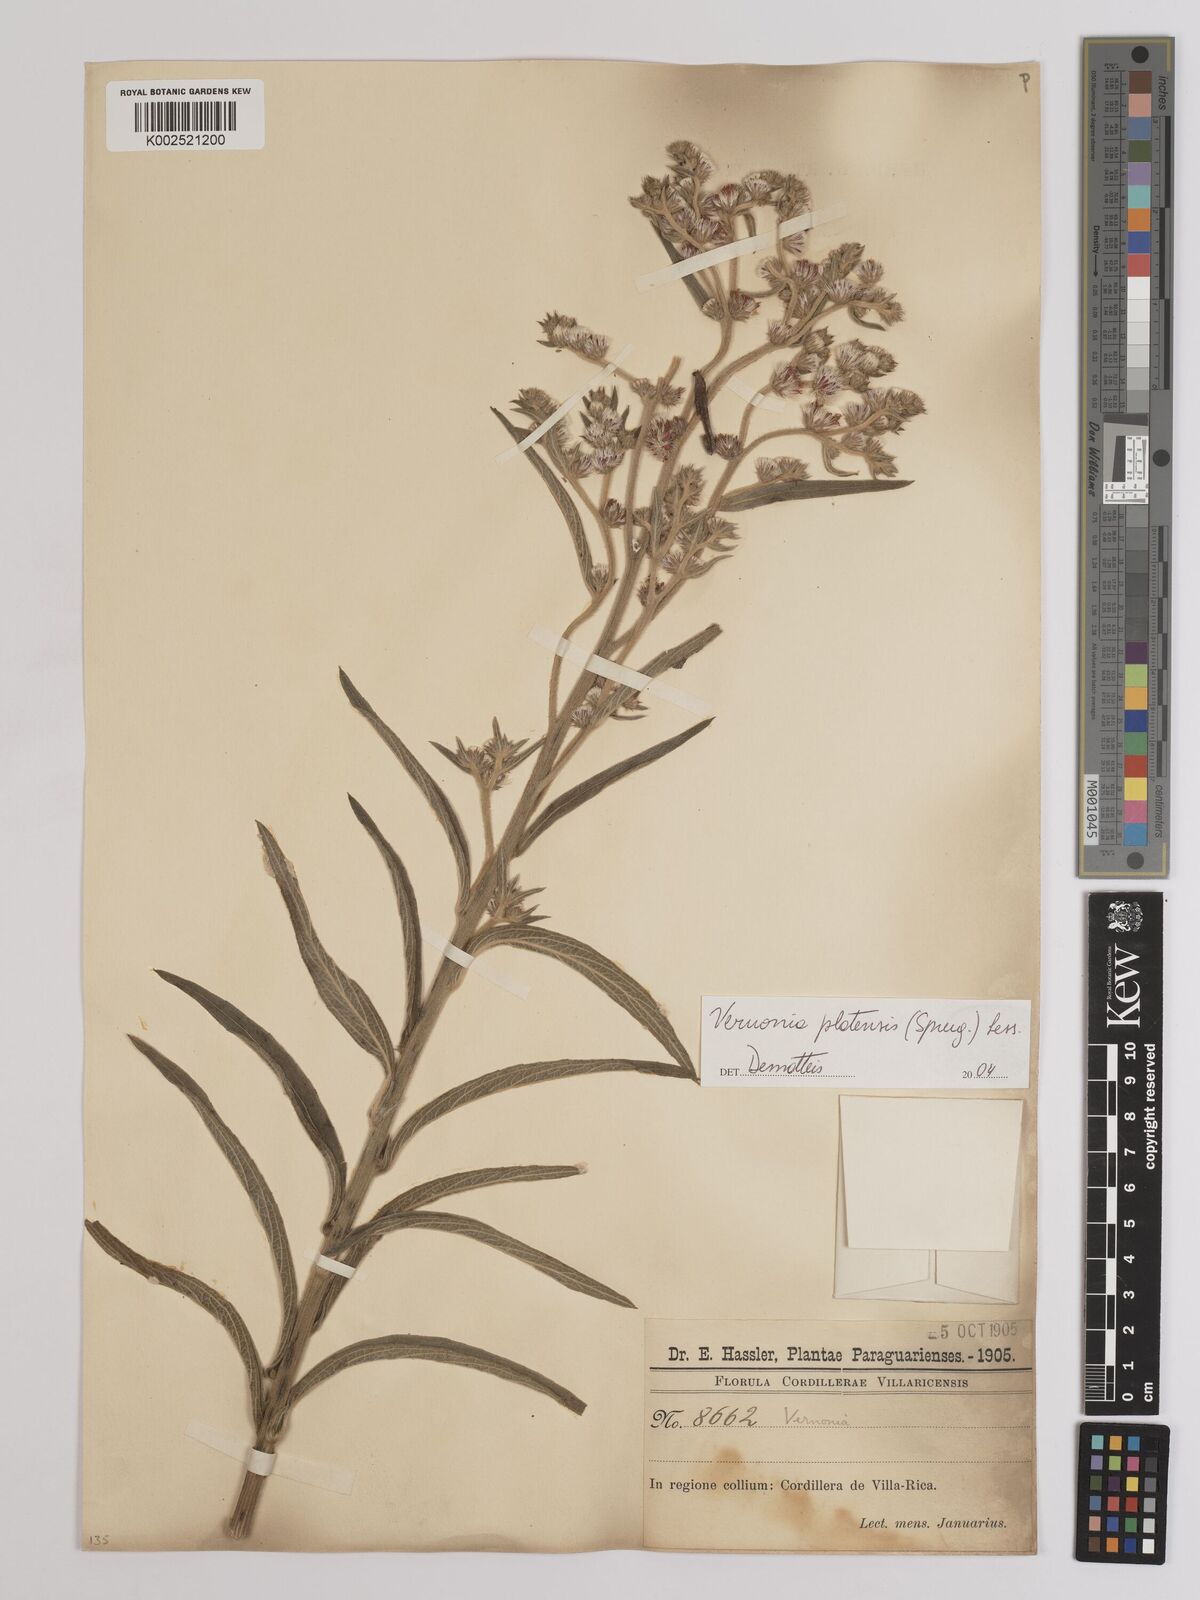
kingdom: Plantae
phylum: Tracheophyta
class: Magnoliopsida
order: Asterales
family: Asteraceae
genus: Chrysolaena
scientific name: Chrysolaena platensis
